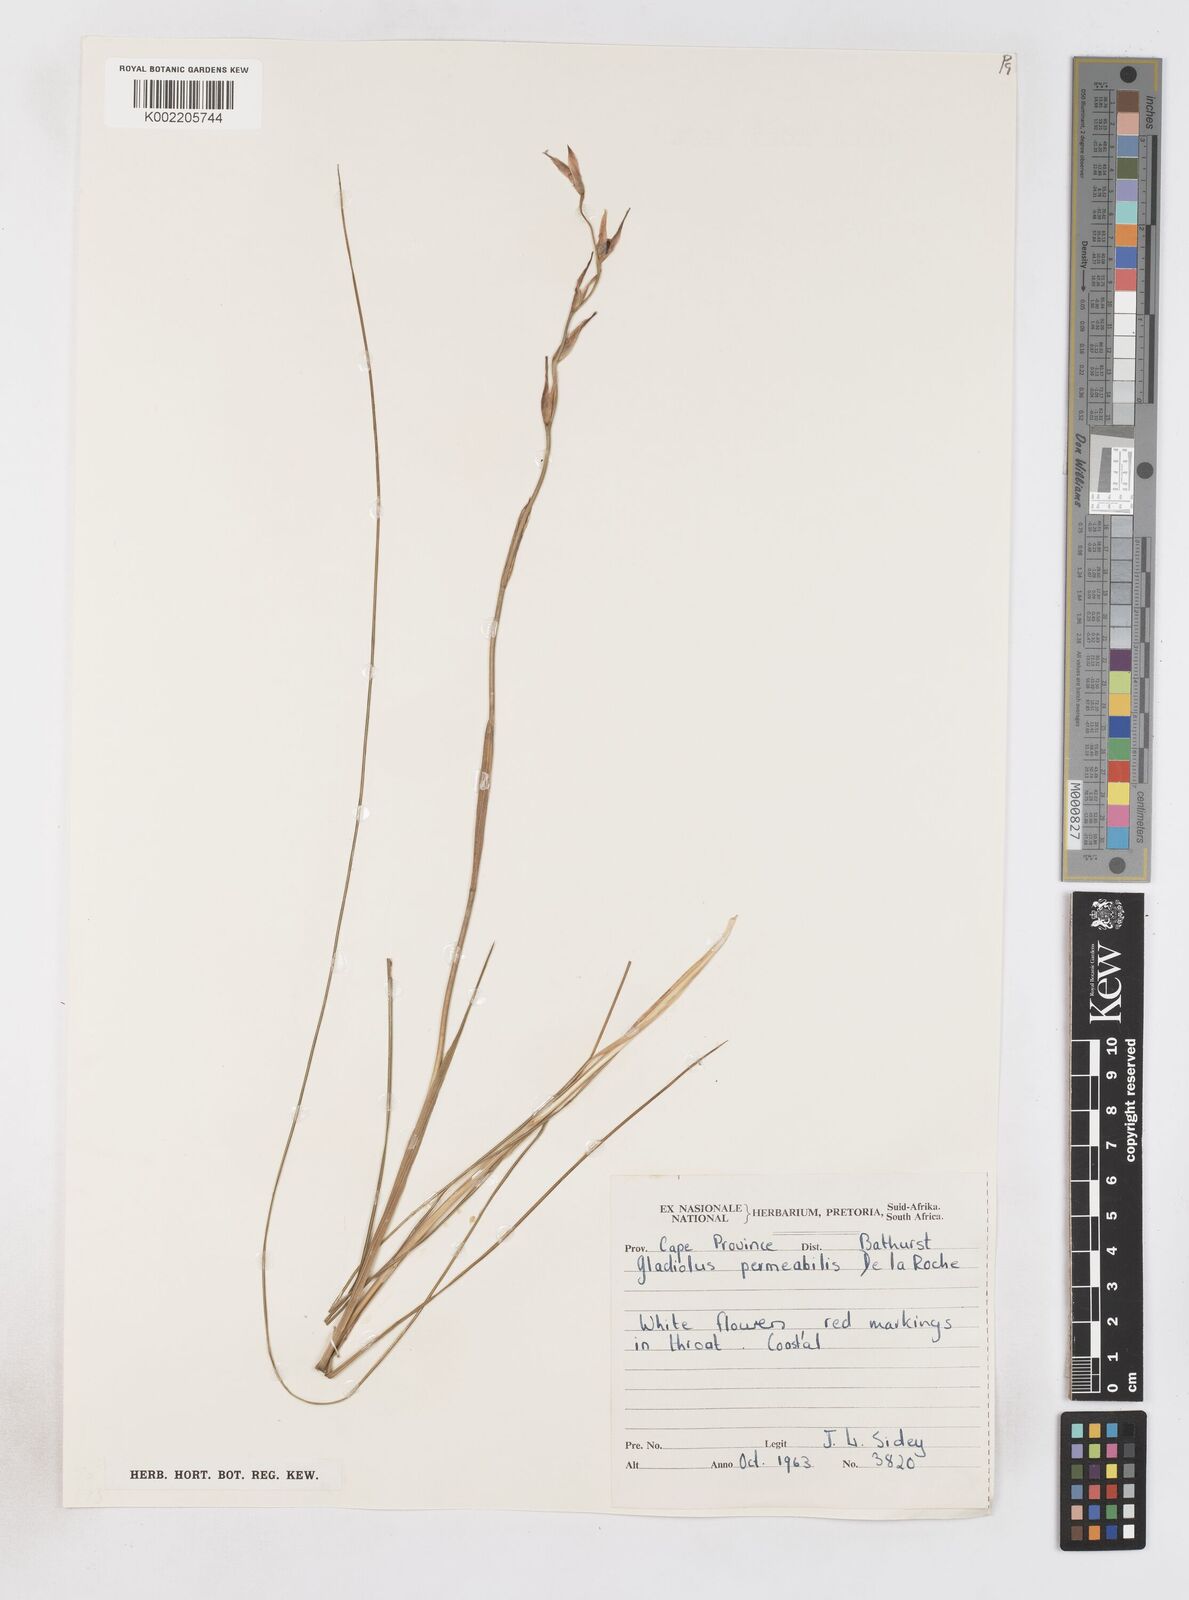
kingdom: Plantae
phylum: Tracheophyta
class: Liliopsida
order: Asparagales
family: Iridaceae
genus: Gladiolus
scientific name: Gladiolus wilsonii
